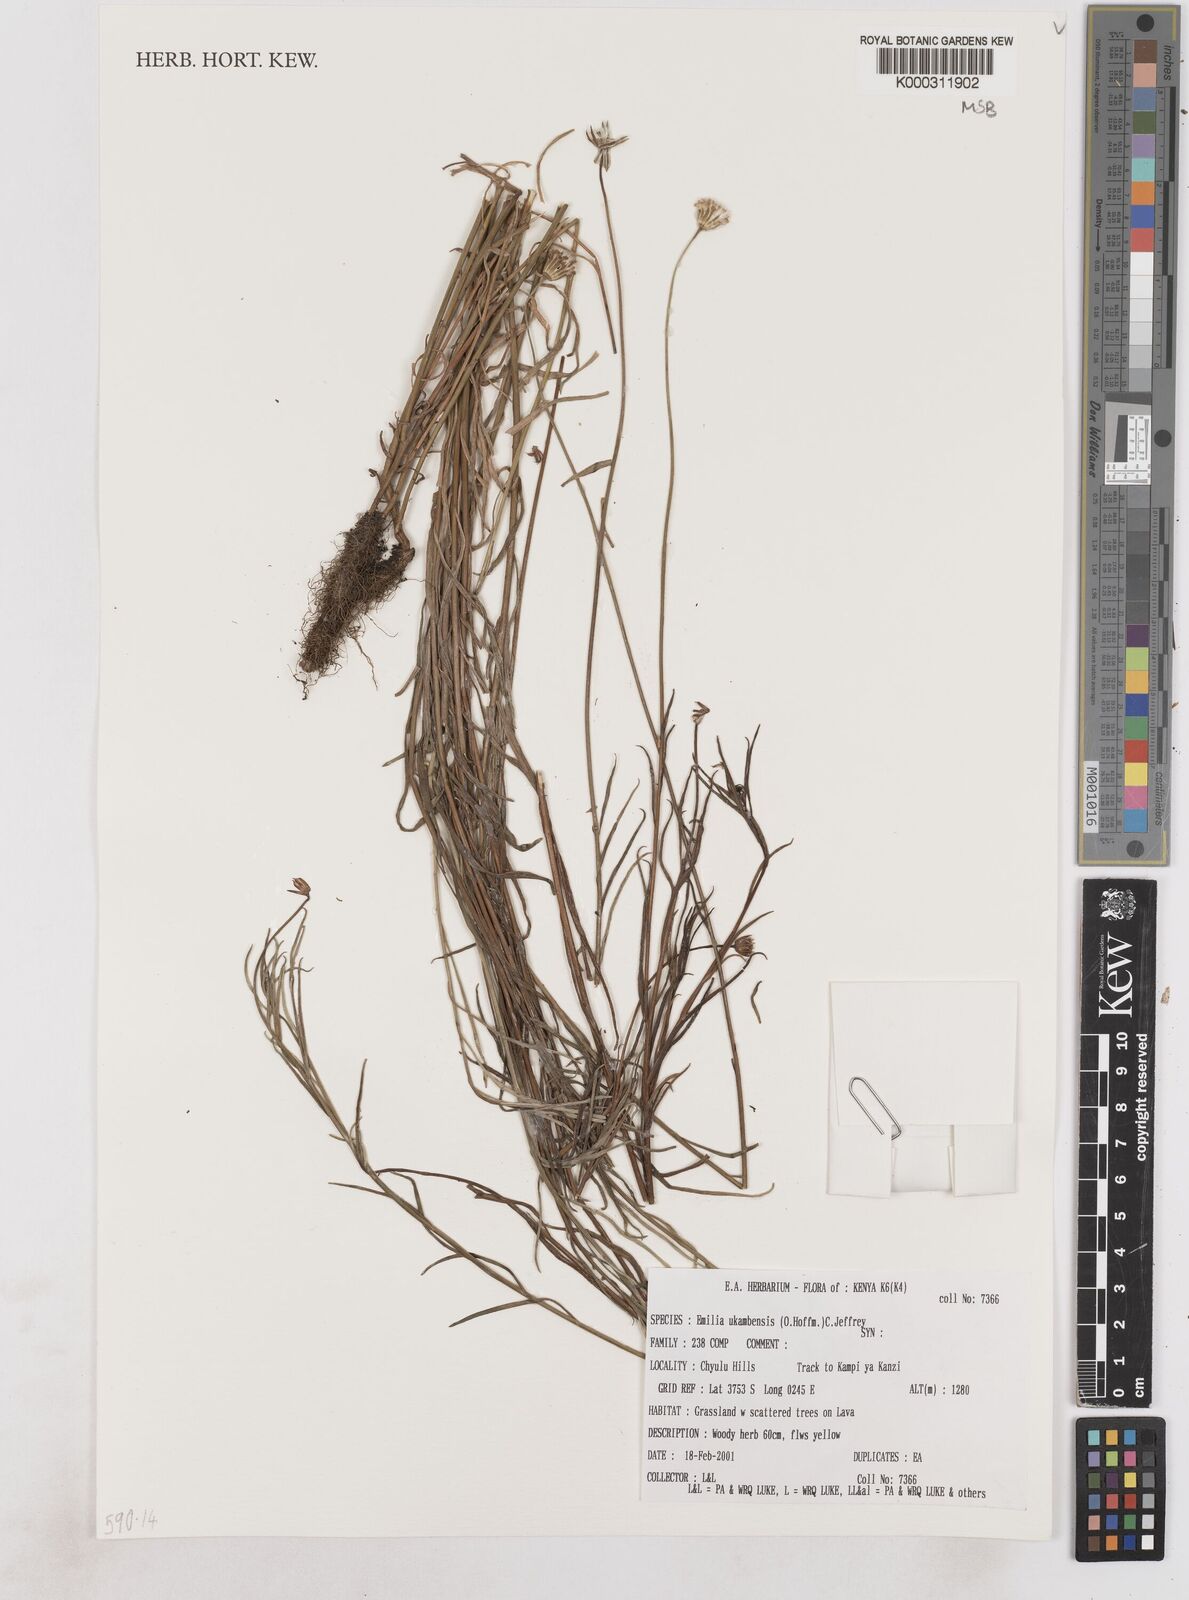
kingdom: Plantae
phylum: Tracheophyta
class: Magnoliopsida
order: Asterales
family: Asteraceae
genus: Emilia
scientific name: Emilia ukambensis
